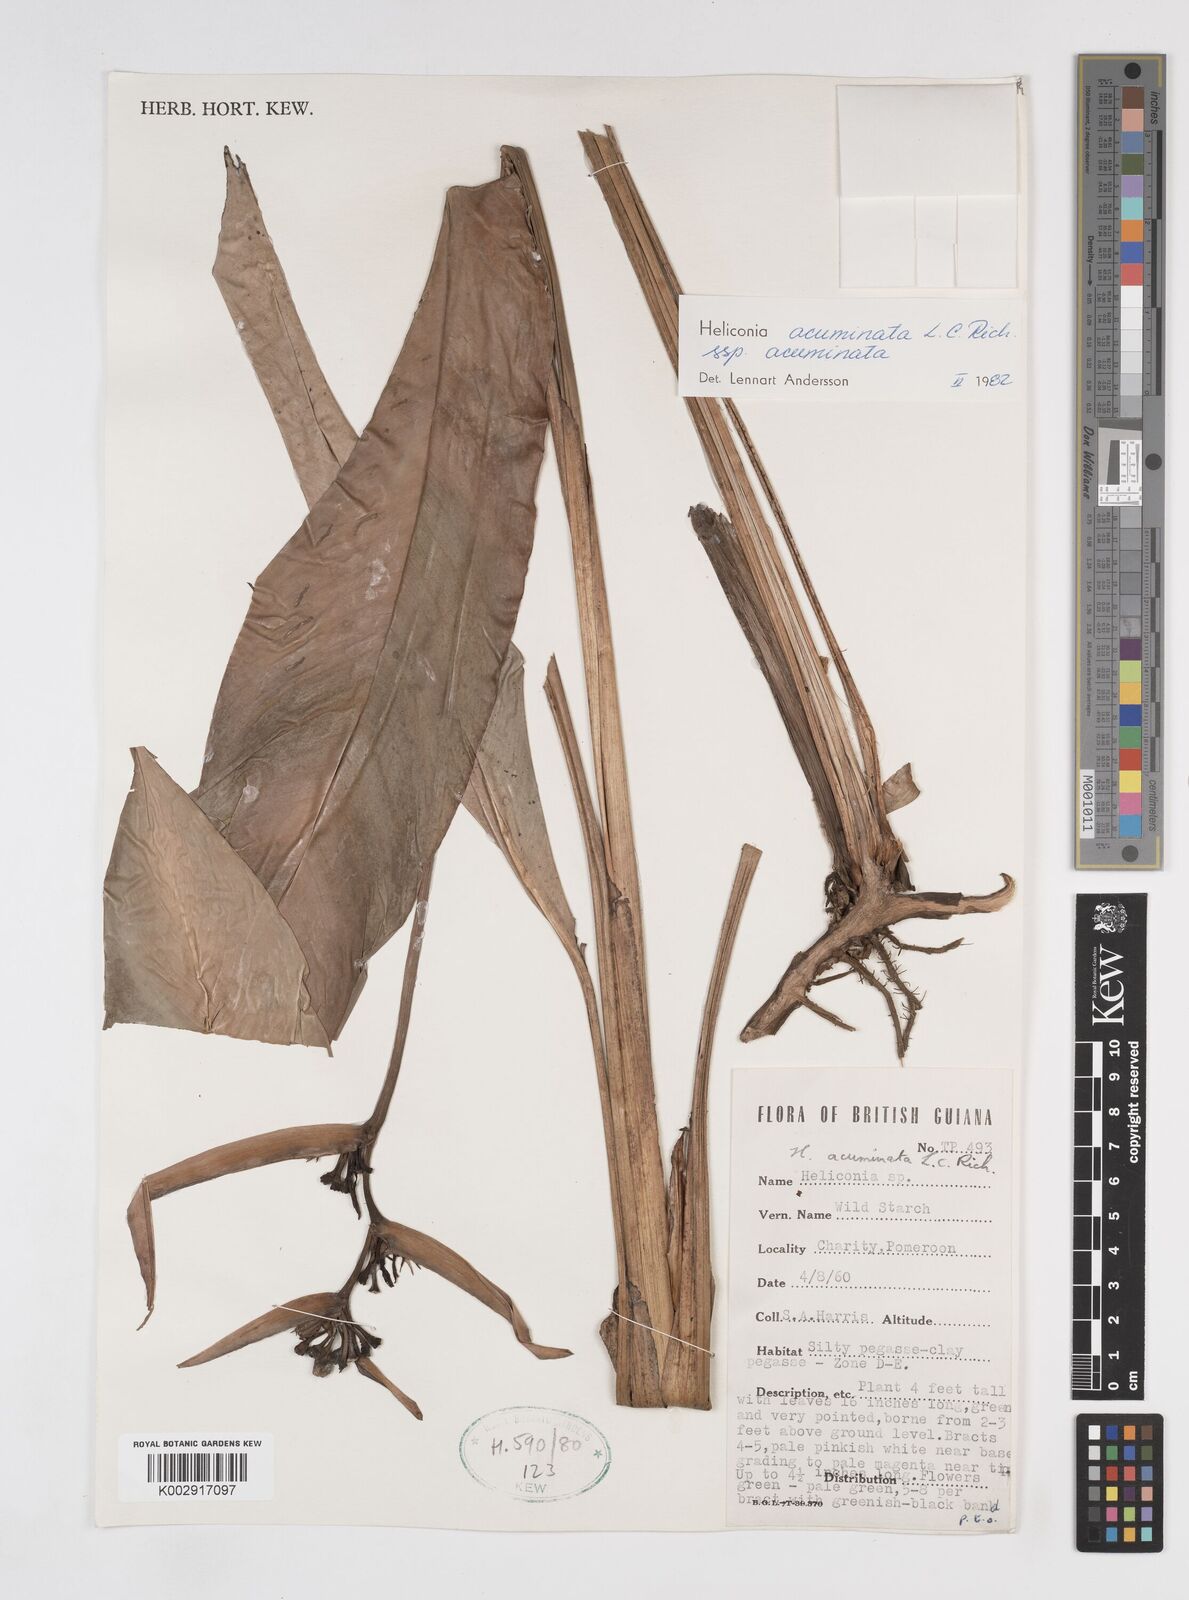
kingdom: Plantae
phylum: Tracheophyta
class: Liliopsida
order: Zingiberales
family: Heliconiaceae
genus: Heliconia
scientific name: Heliconia acuminata
